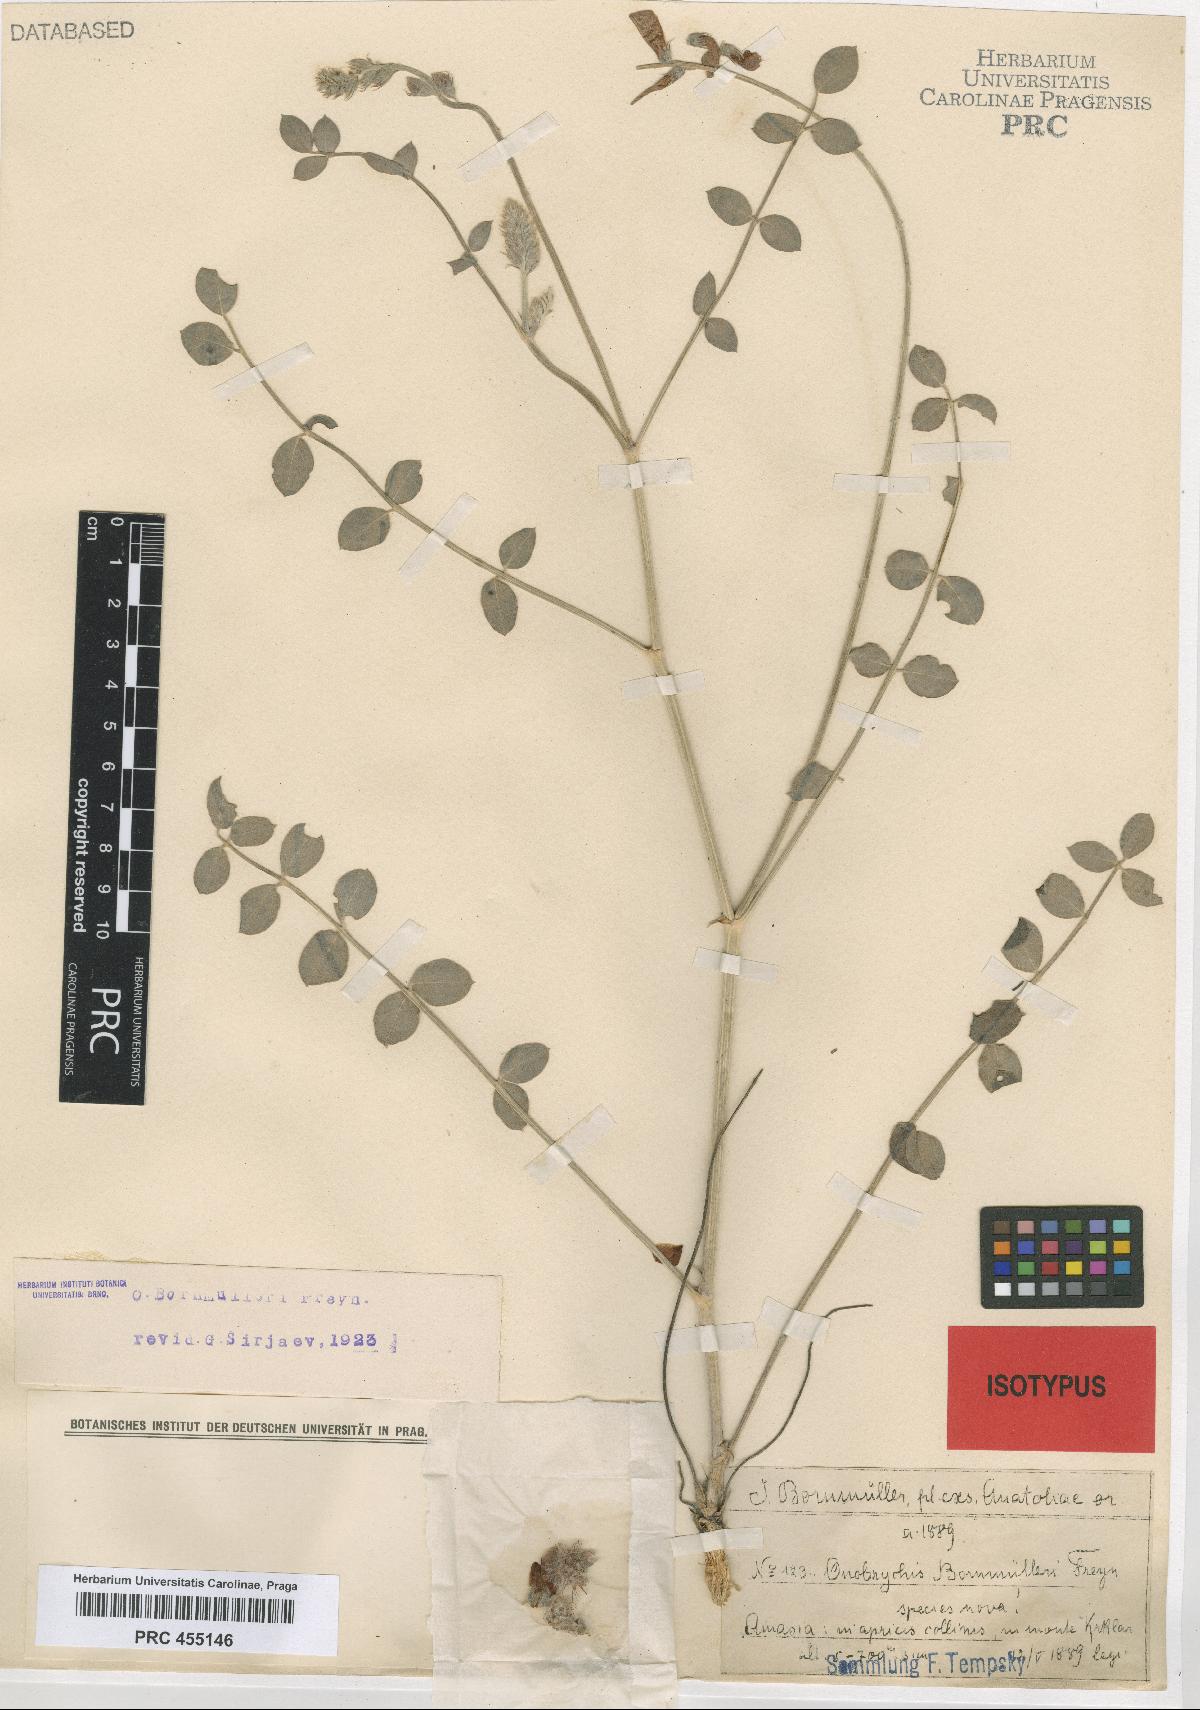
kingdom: Plantae
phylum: Tracheophyta
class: Magnoliopsida
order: Fabales
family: Fabaceae
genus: Onobrychis
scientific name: Onobrychis bornmuelleri
